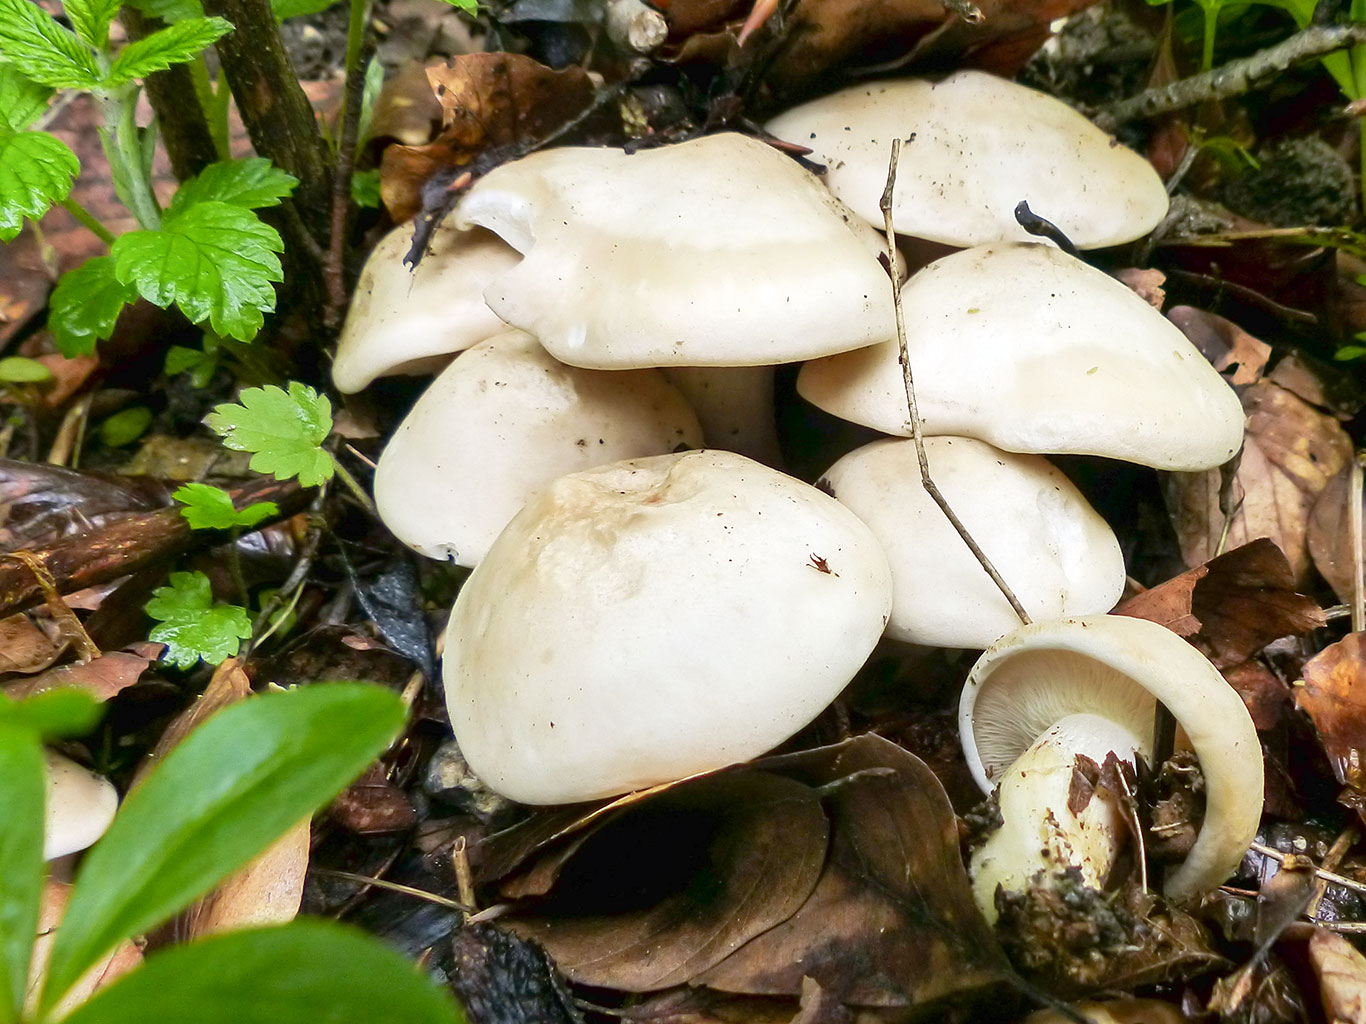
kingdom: Fungi
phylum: Basidiomycota
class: Agaricomycetes
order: Agaricales
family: Lyophyllaceae
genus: Calocybe
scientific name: Calocybe gambosa
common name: vårmusseron
